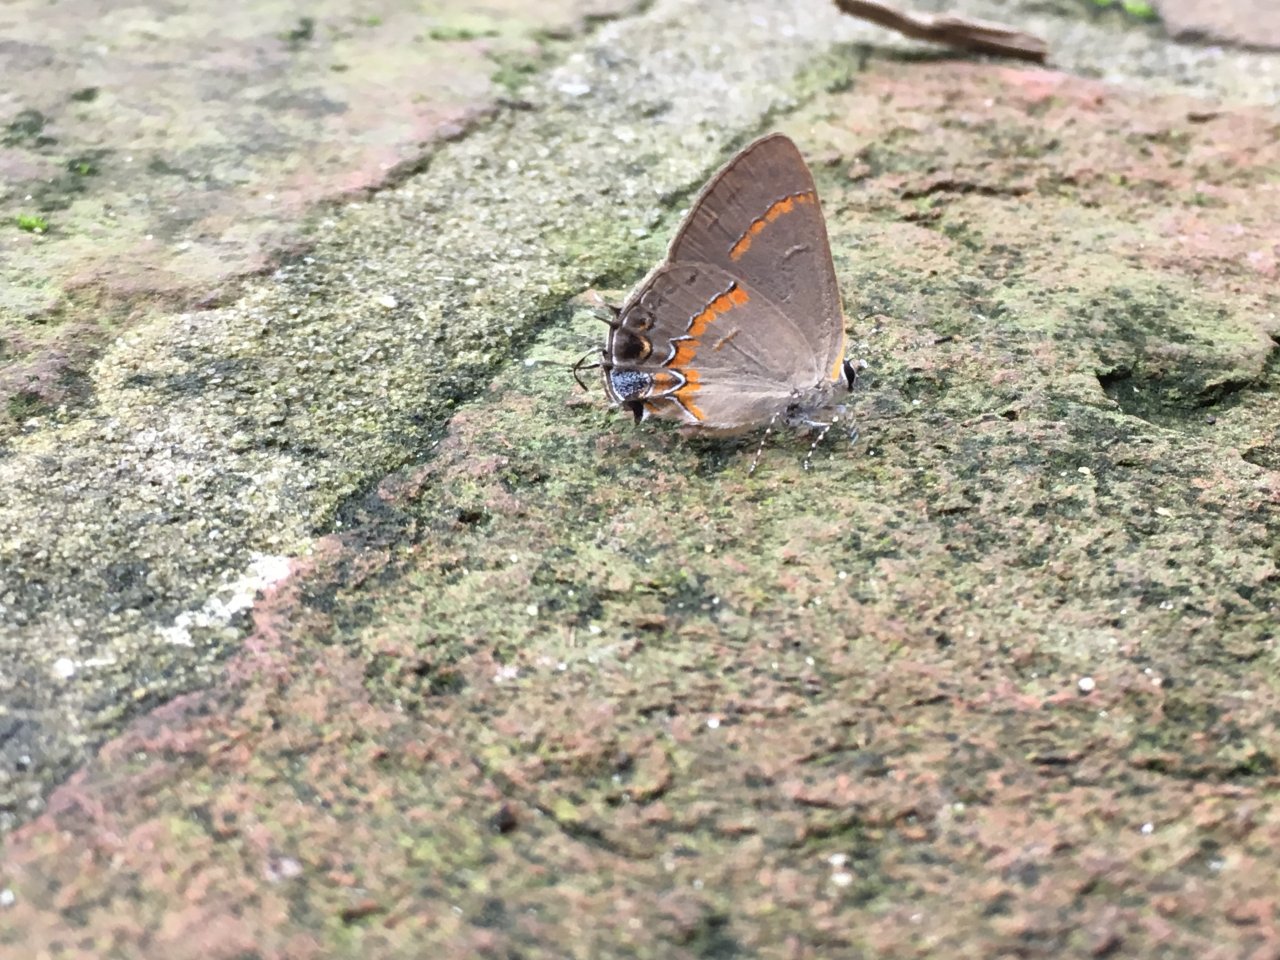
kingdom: Animalia
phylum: Arthropoda
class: Insecta
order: Lepidoptera
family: Lycaenidae
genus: Calycopis
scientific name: Calycopis cecrops
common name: Red-banded Hairstreak
